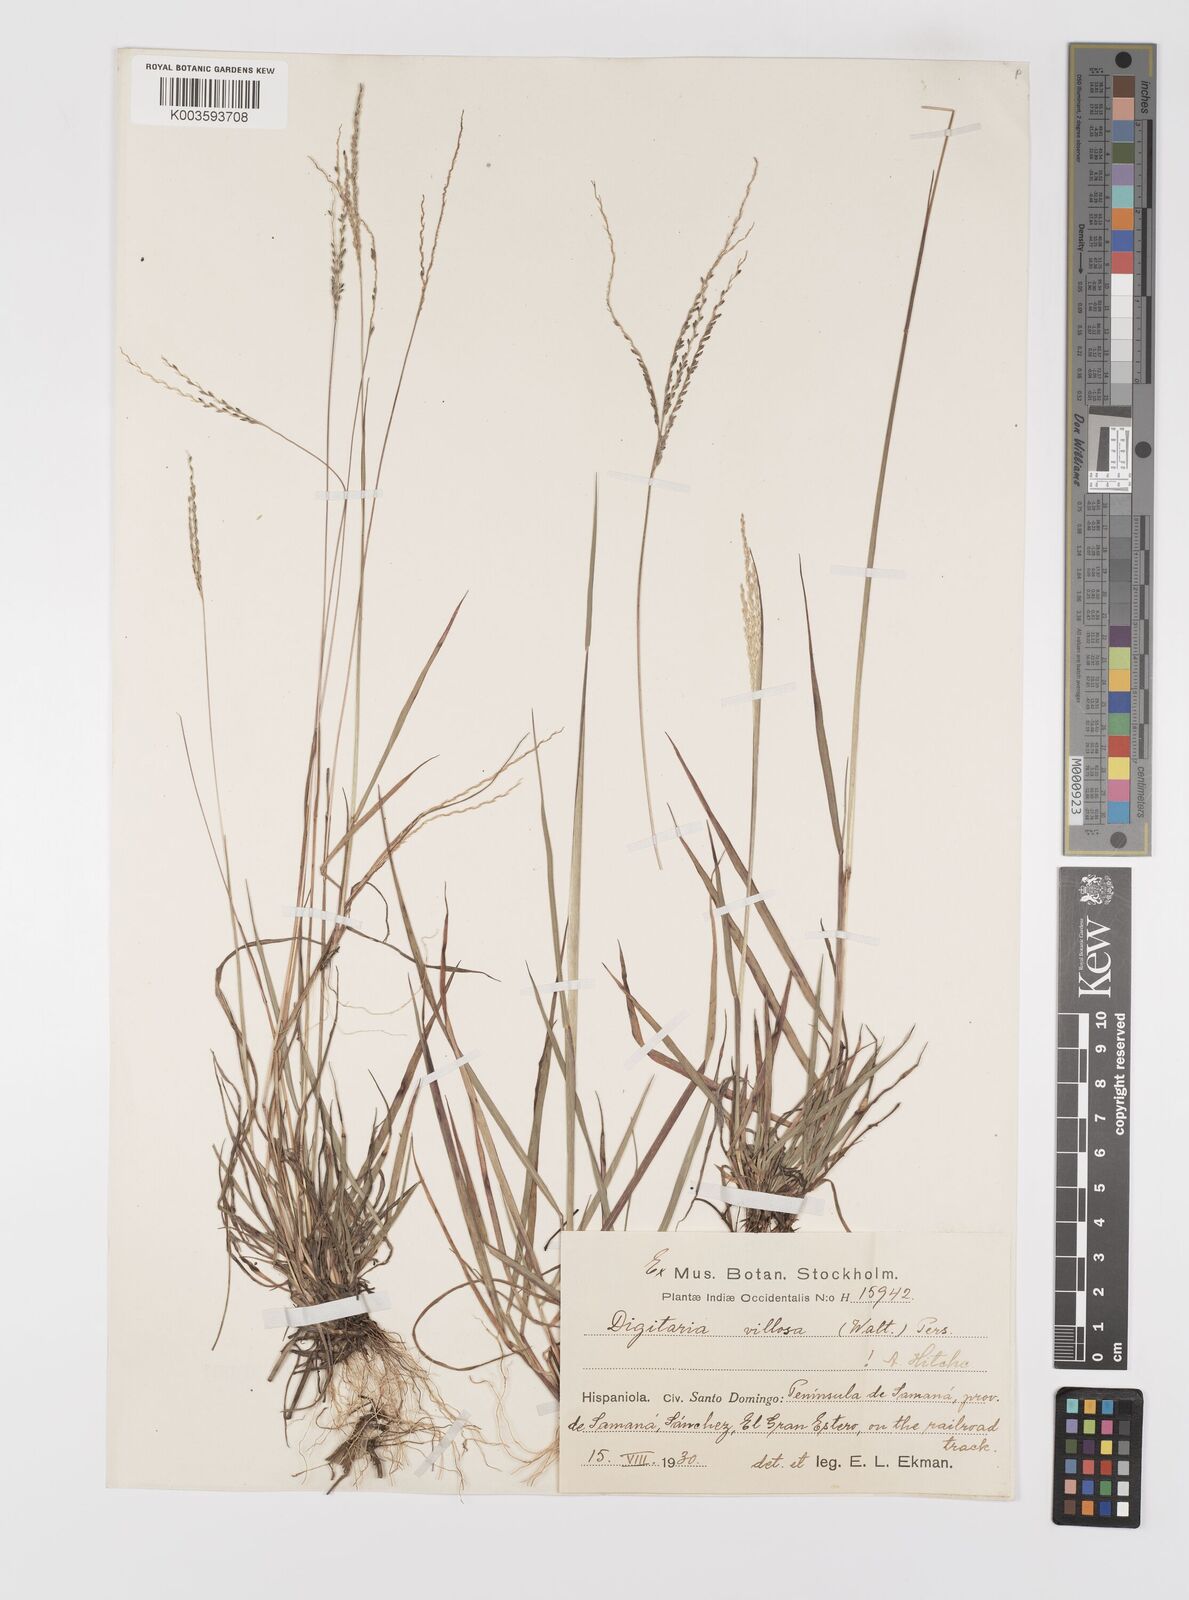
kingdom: Plantae
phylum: Tracheophyta
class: Liliopsida
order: Poales
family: Poaceae
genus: Digitaria
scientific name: Digitaria villosa
